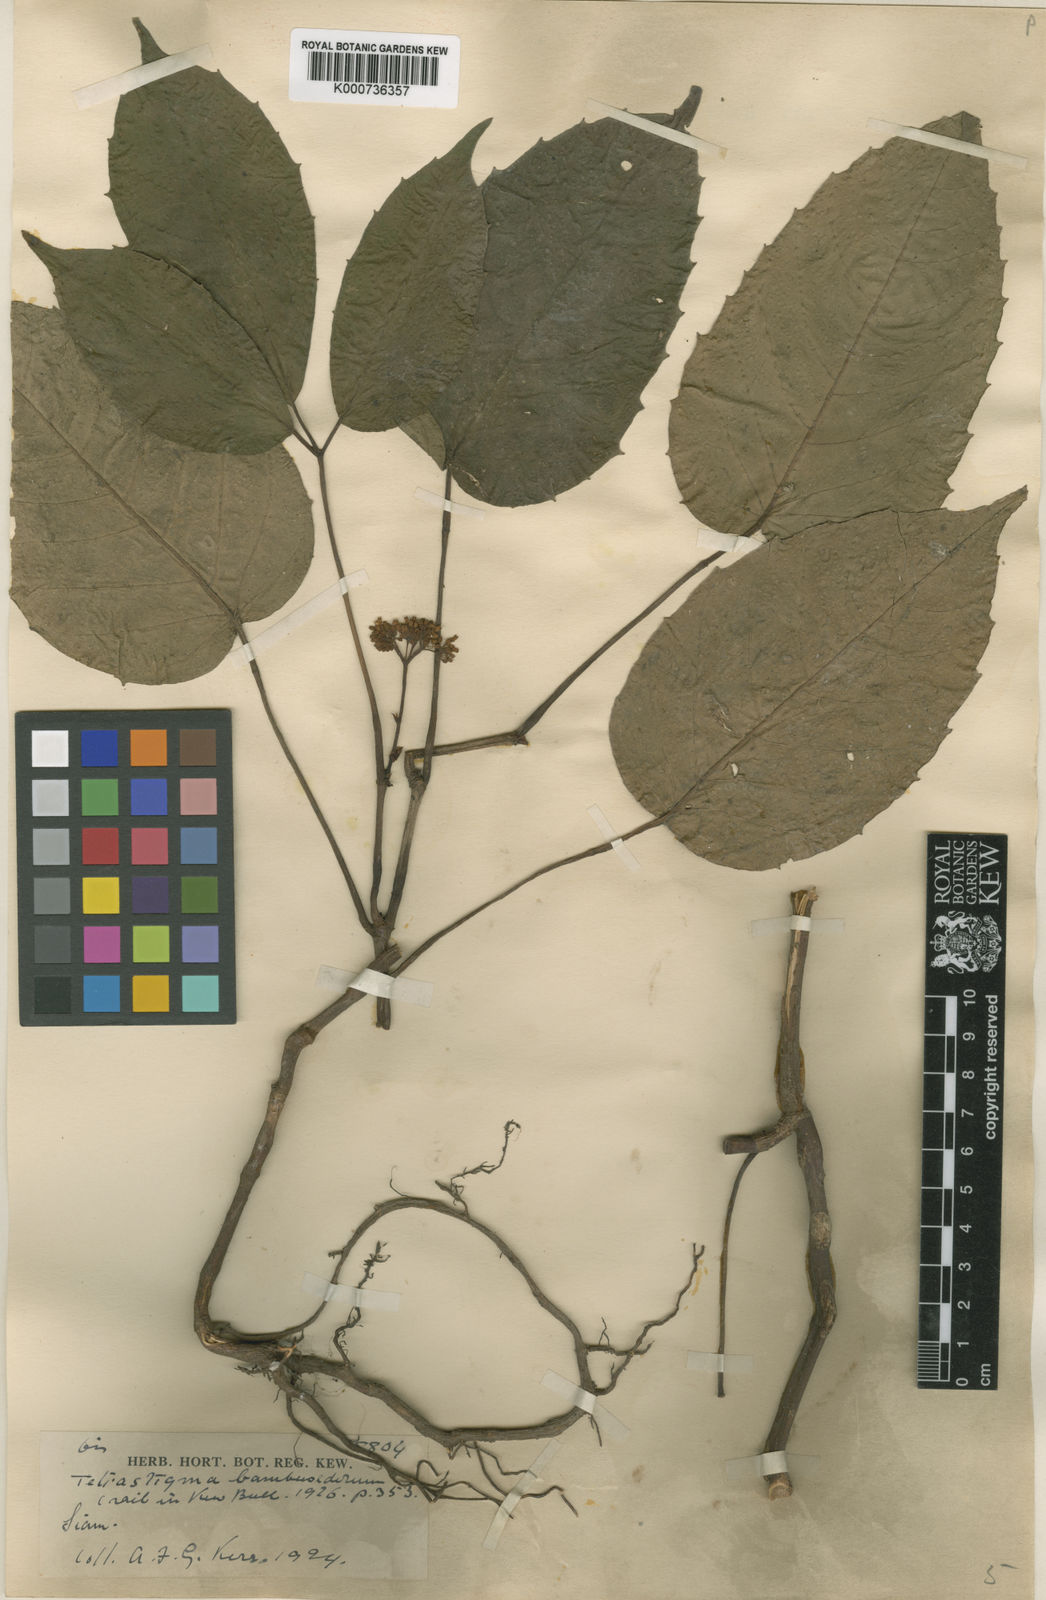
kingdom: Plantae
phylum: Tracheophyta
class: Magnoliopsida
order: Vitales
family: Vitaceae
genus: Tetrastigma
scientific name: Tetrastigma bambusetorum
